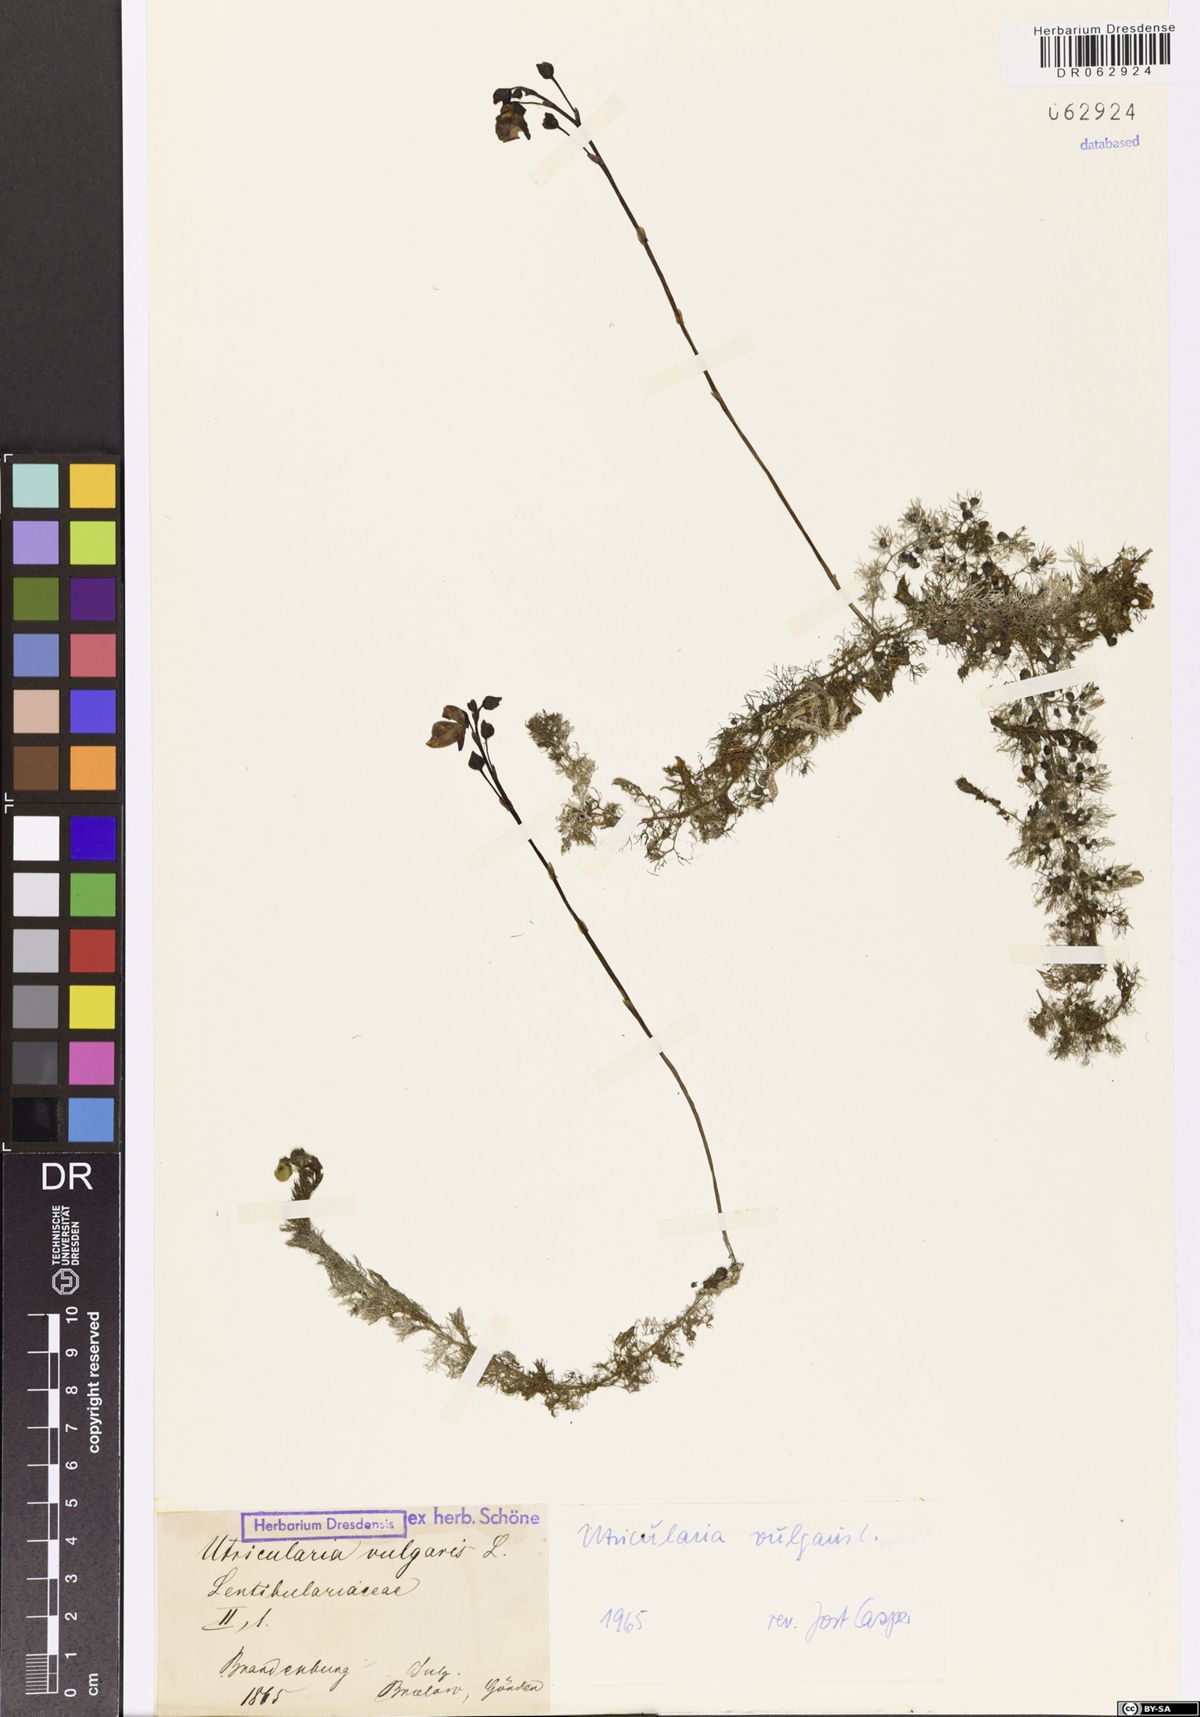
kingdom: Plantae
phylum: Tracheophyta
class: Magnoliopsida
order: Lamiales
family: Lentibulariaceae
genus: Utricularia
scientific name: Utricularia vulgaris
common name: Greater bladderwort
